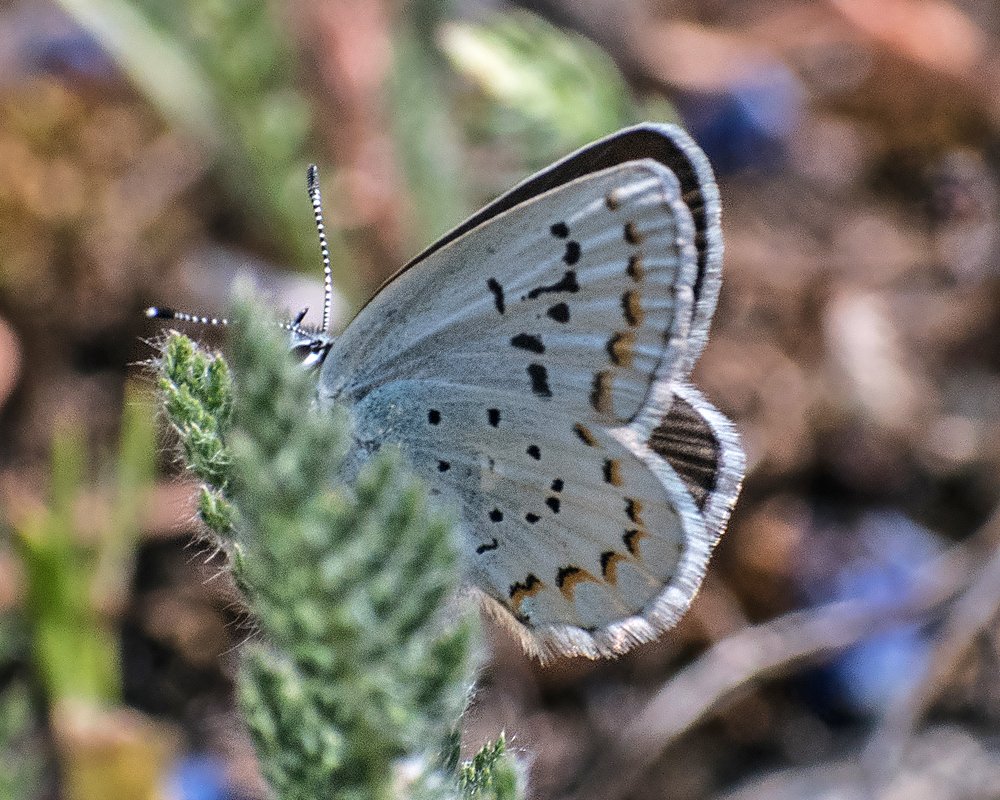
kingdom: Animalia
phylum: Arthropoda
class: Insecta
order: Lepidoptera
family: Lycaenidae
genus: Lycaeides
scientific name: Lycaeides anna
